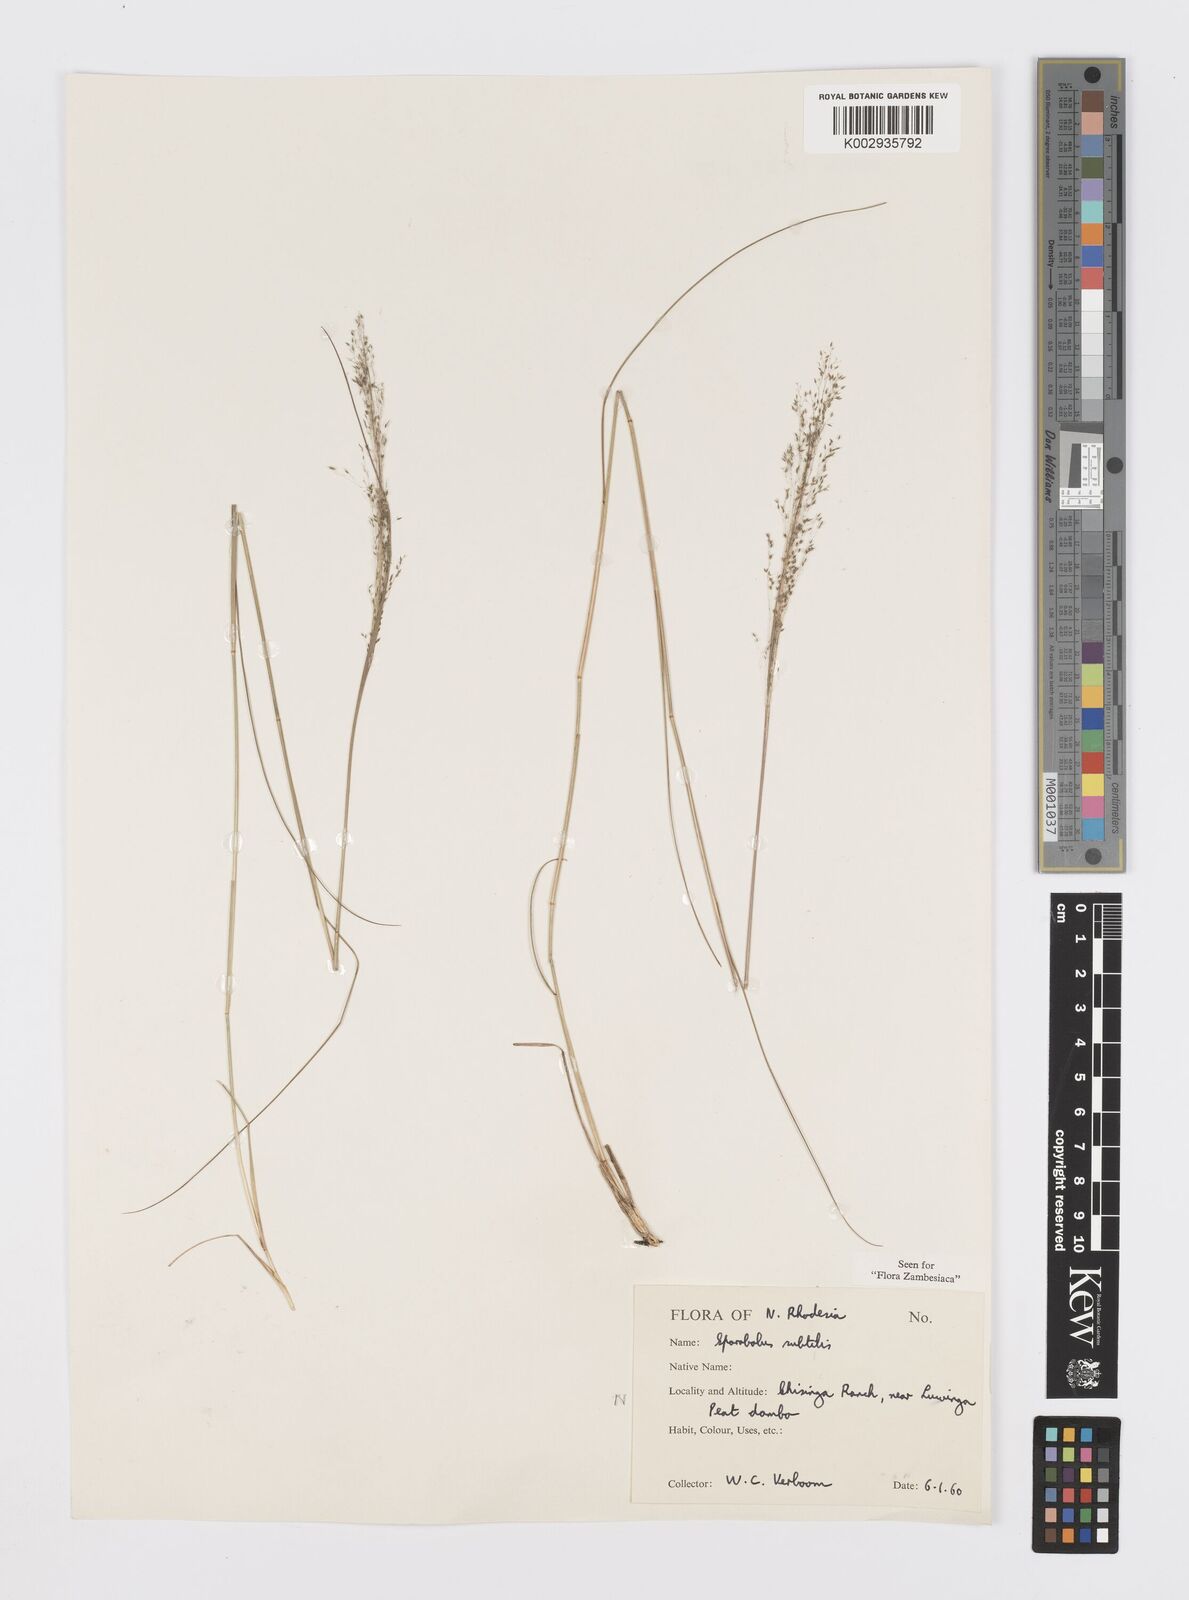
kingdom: Plantae
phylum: Tracheophyta
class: Liliopsida
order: Poales
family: Poaceae
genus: Sporobolus
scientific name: Sporobolus subtilis
